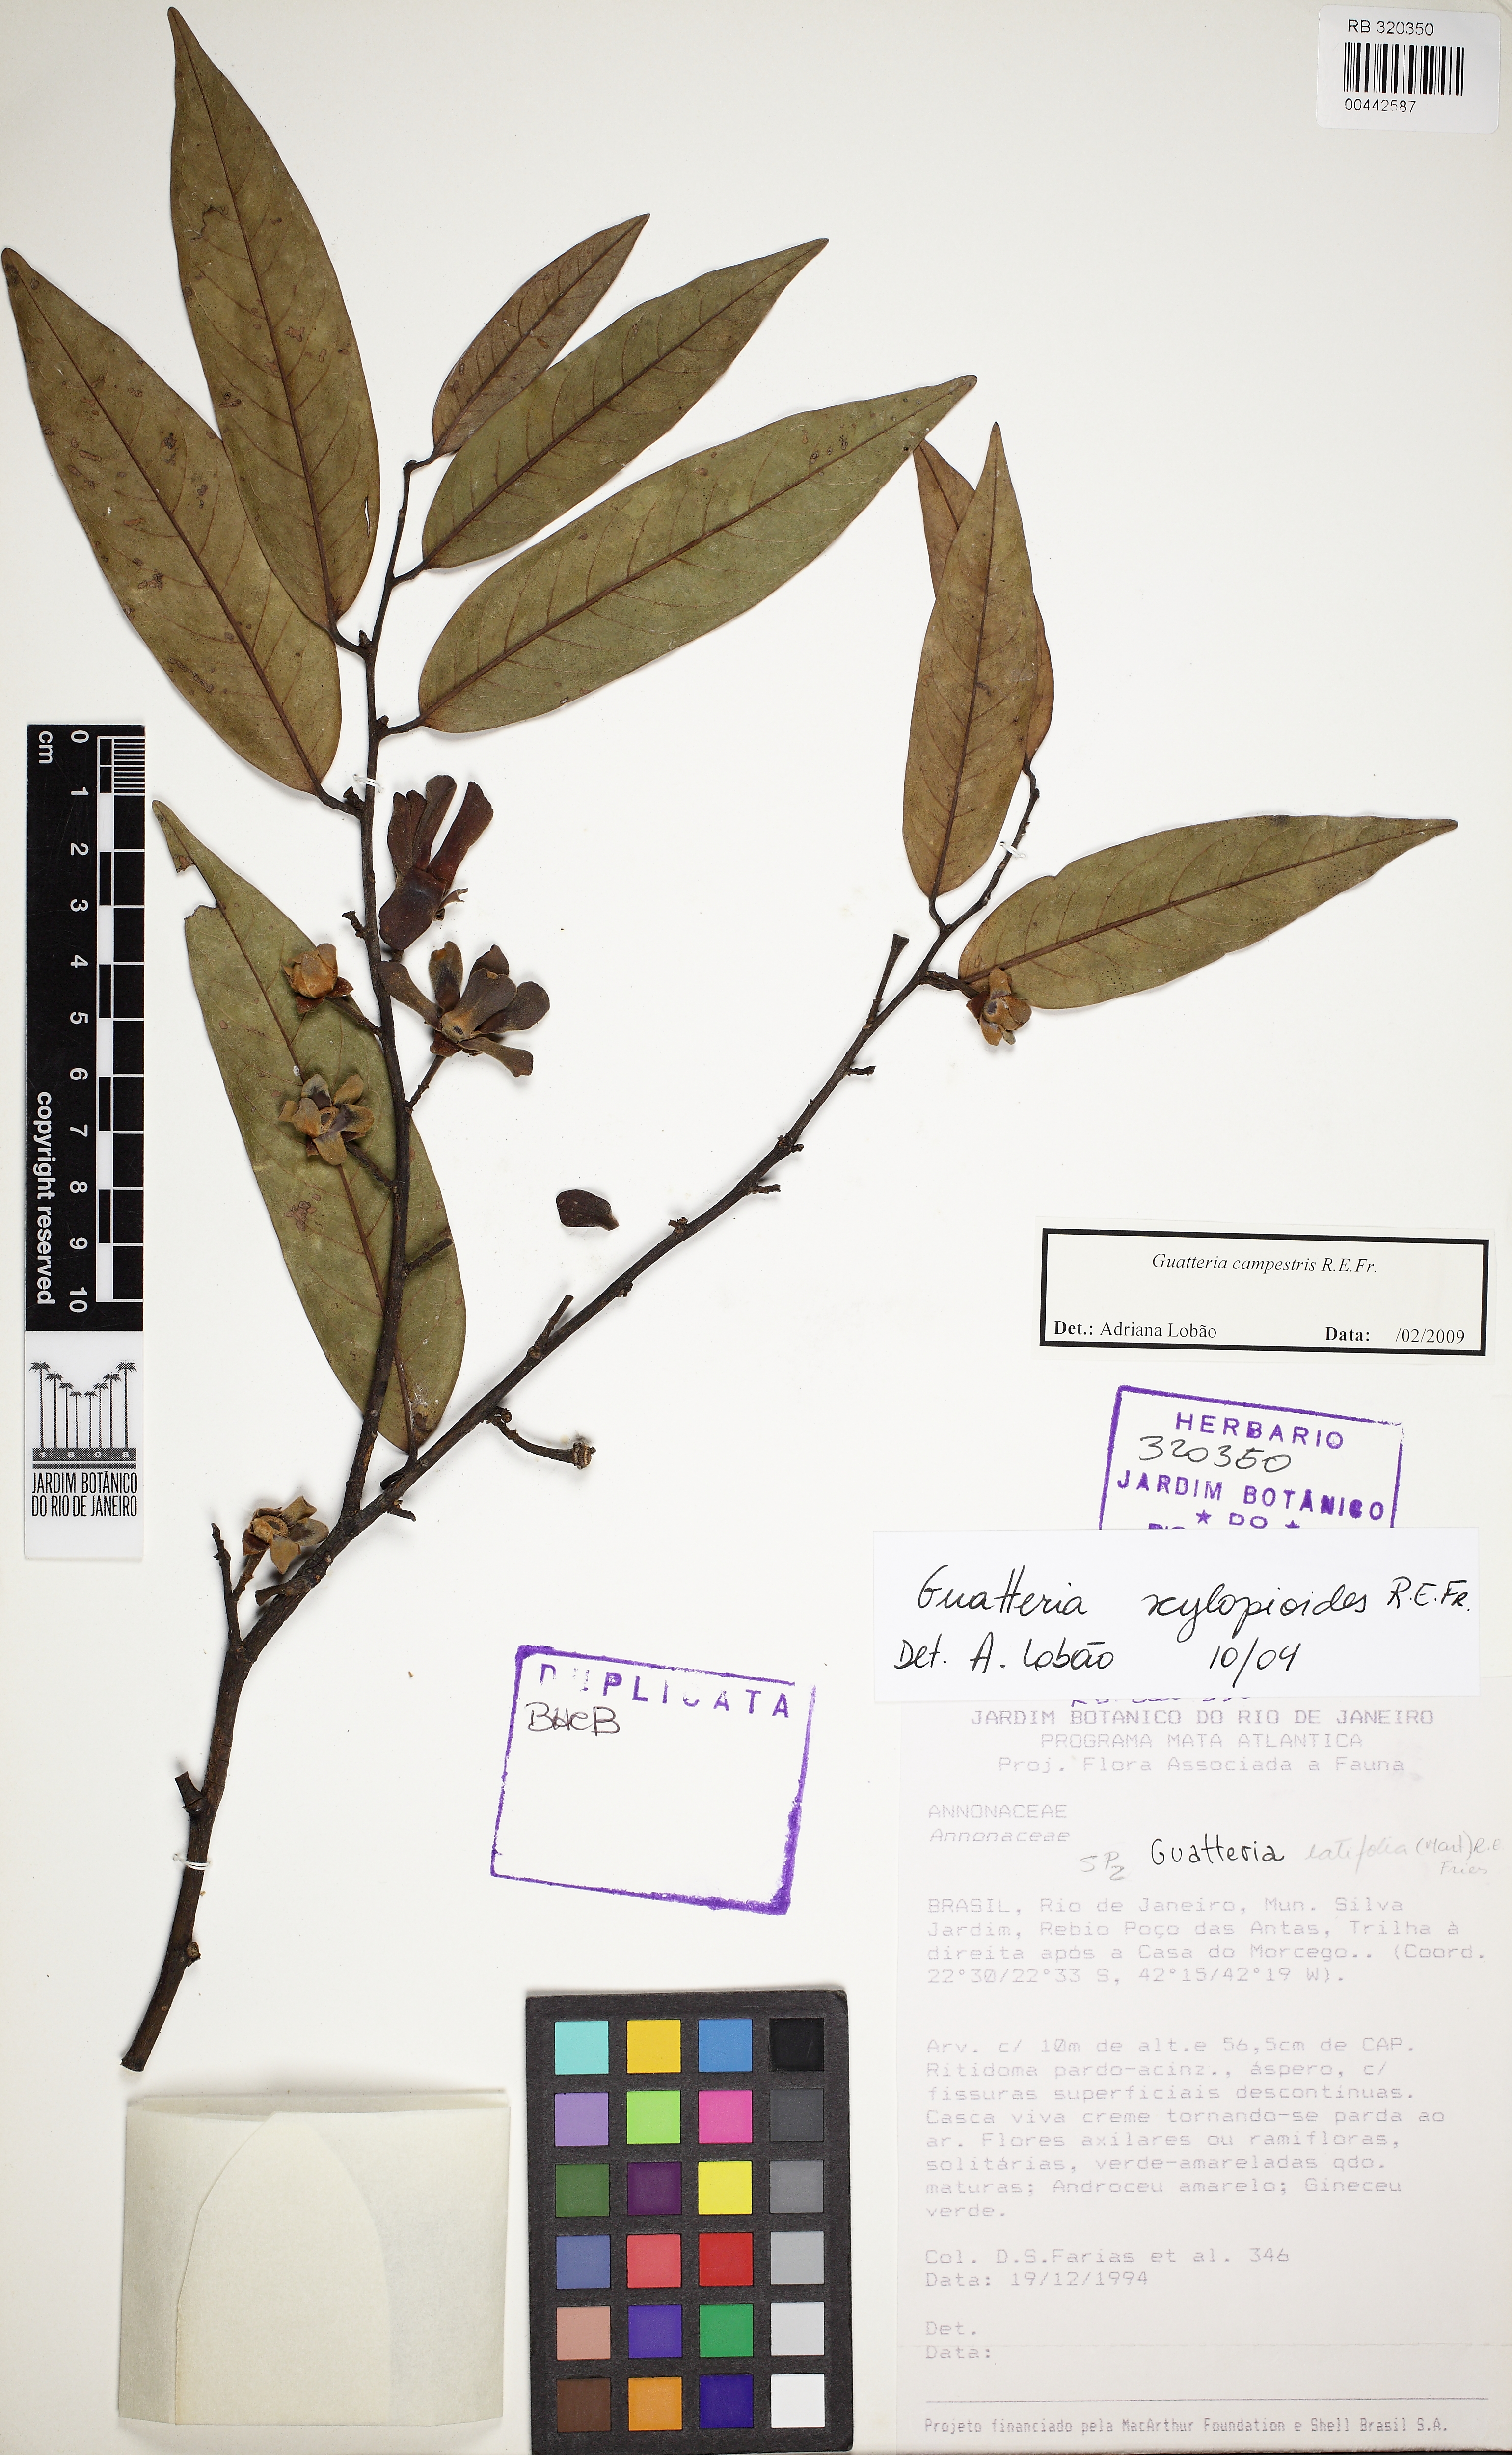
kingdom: Plantae
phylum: Tracheophyta
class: Magnoliopsida
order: Magnoliales
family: Annonaceae
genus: Guatteria
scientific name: Guatteria campestris
